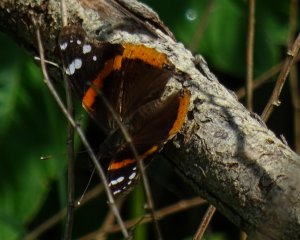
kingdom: Animalia
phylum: Arthropoda
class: Insecta
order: Lepidoptera
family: Nymphalidae
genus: Vanessa
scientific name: Vanessa atalanta
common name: Red Admiral
